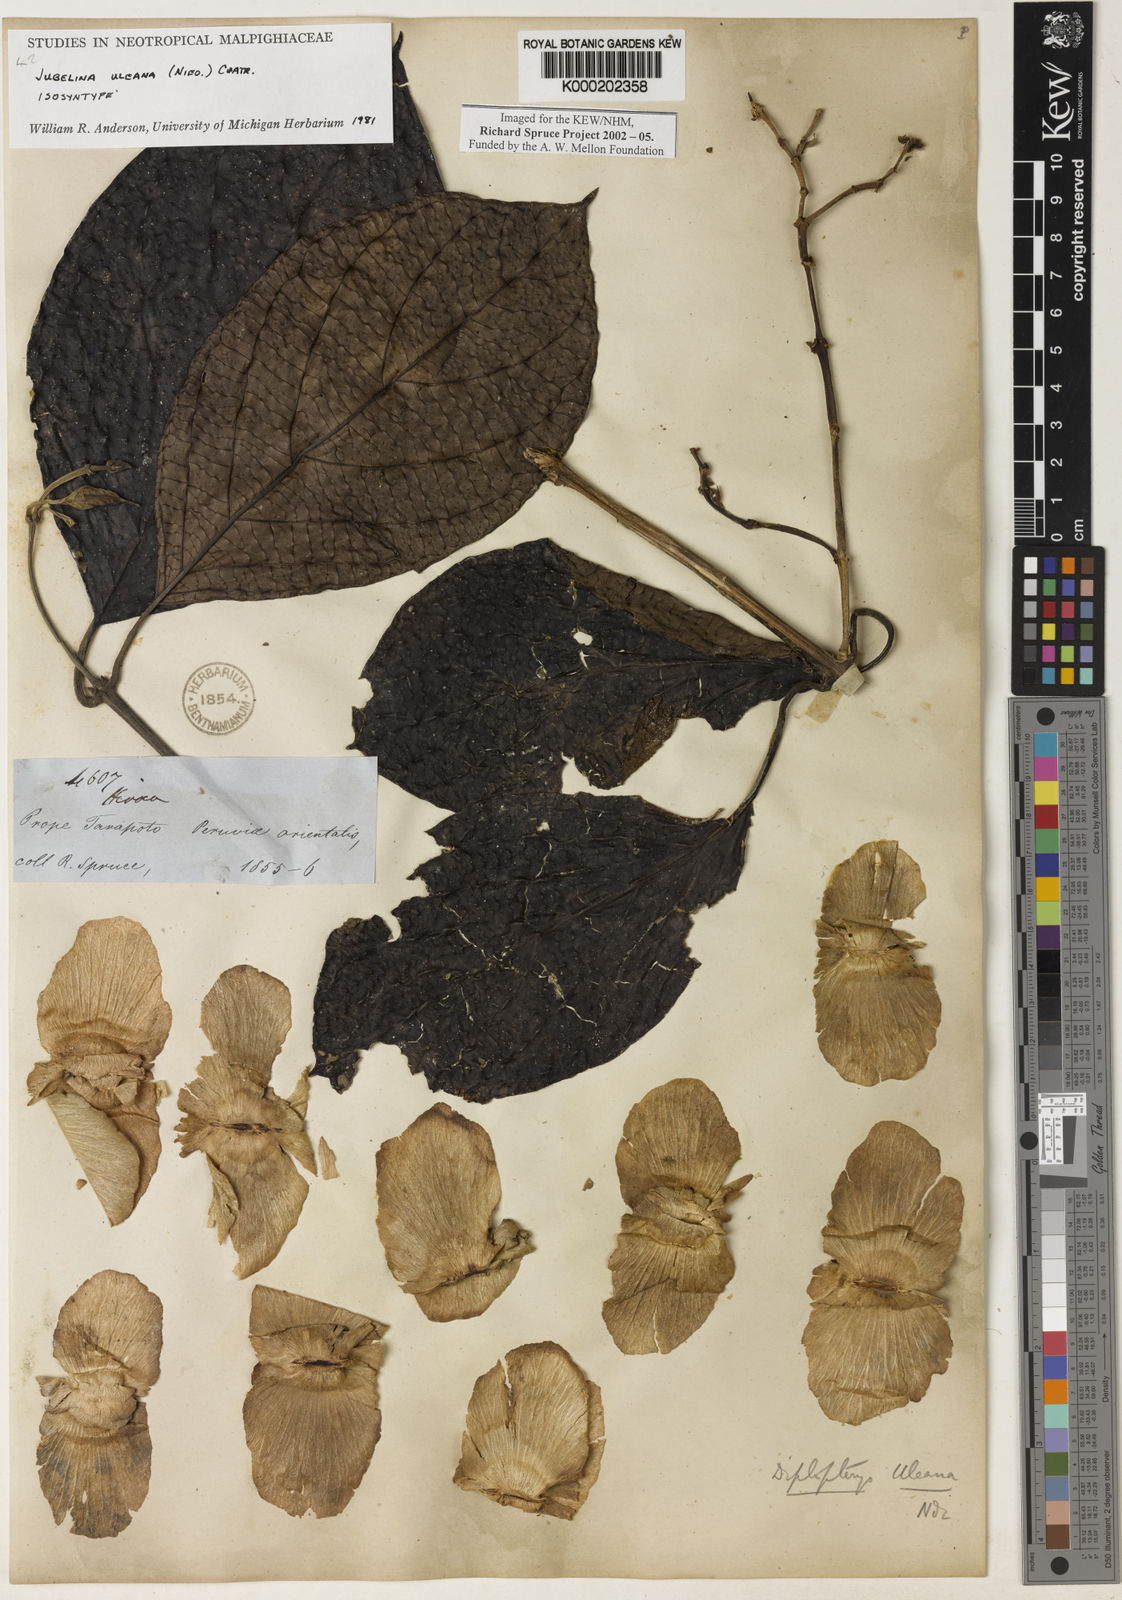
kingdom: Plantae
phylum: Tracheophyta
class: Magnoliopsida
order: Malpighiales
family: Malpighiaceae
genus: Jubelina
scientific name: Jubelina uleana
